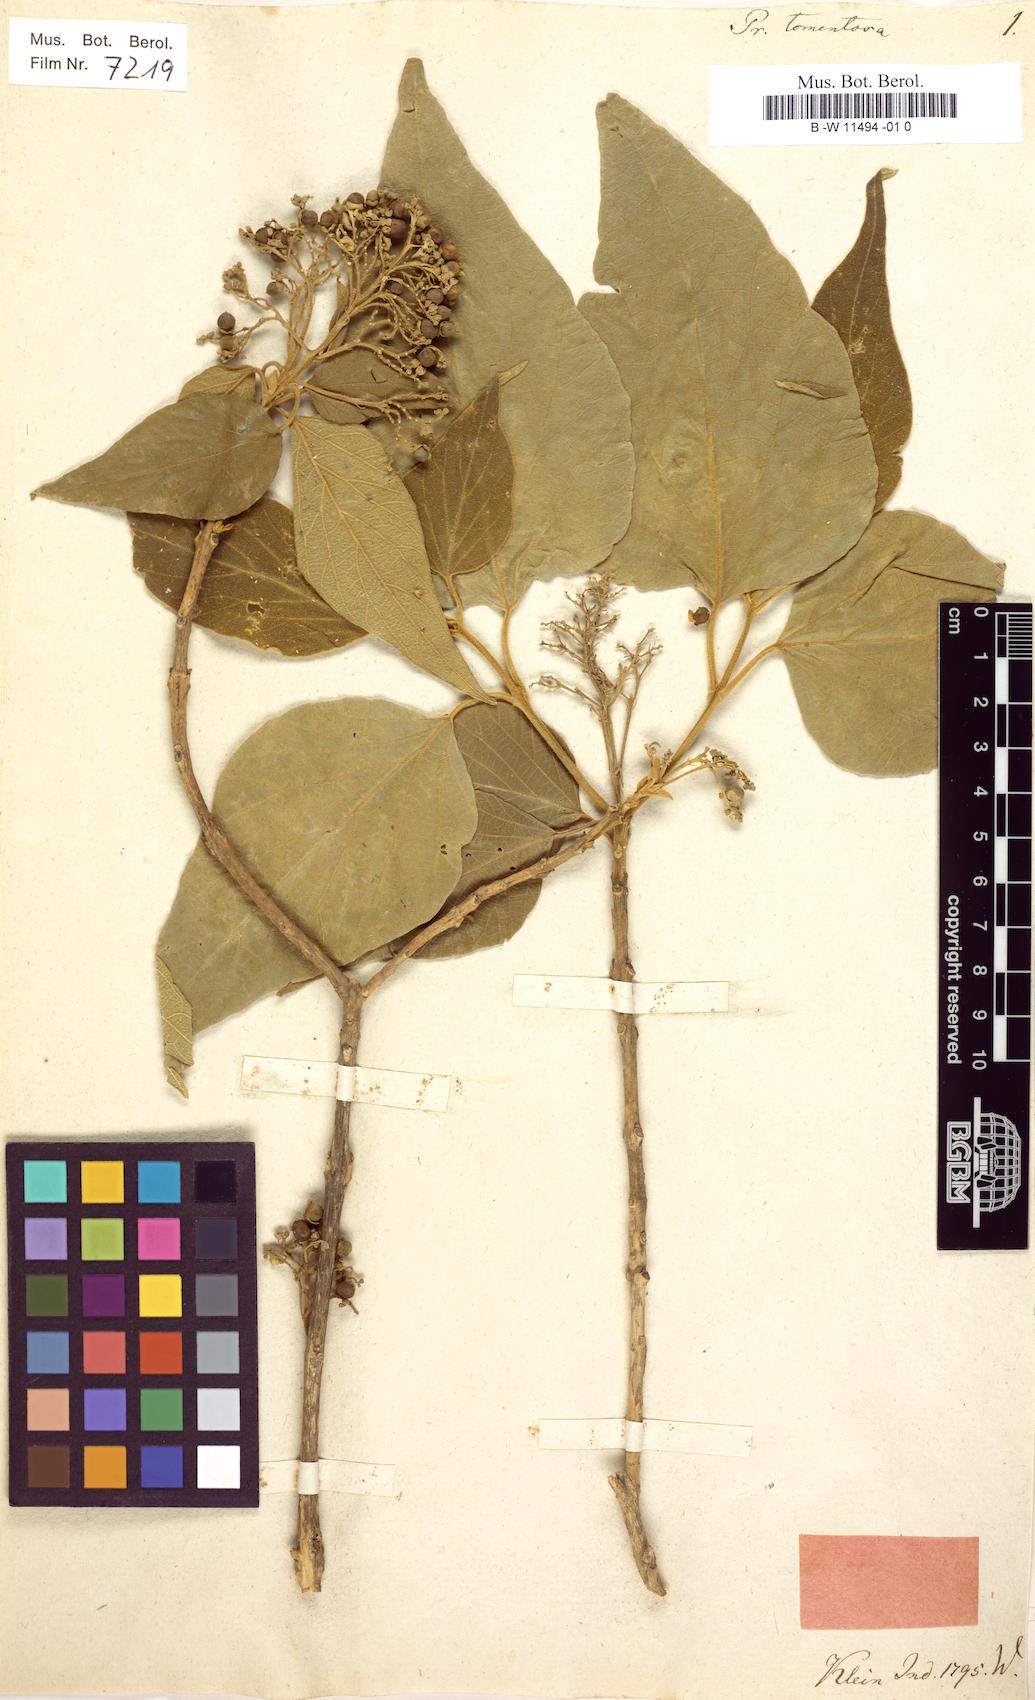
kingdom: Plantae
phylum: Tracheophyta
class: Magnoliopsida
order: Lamiales
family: Lamiaceae
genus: Premna
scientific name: Premna tomentosa
